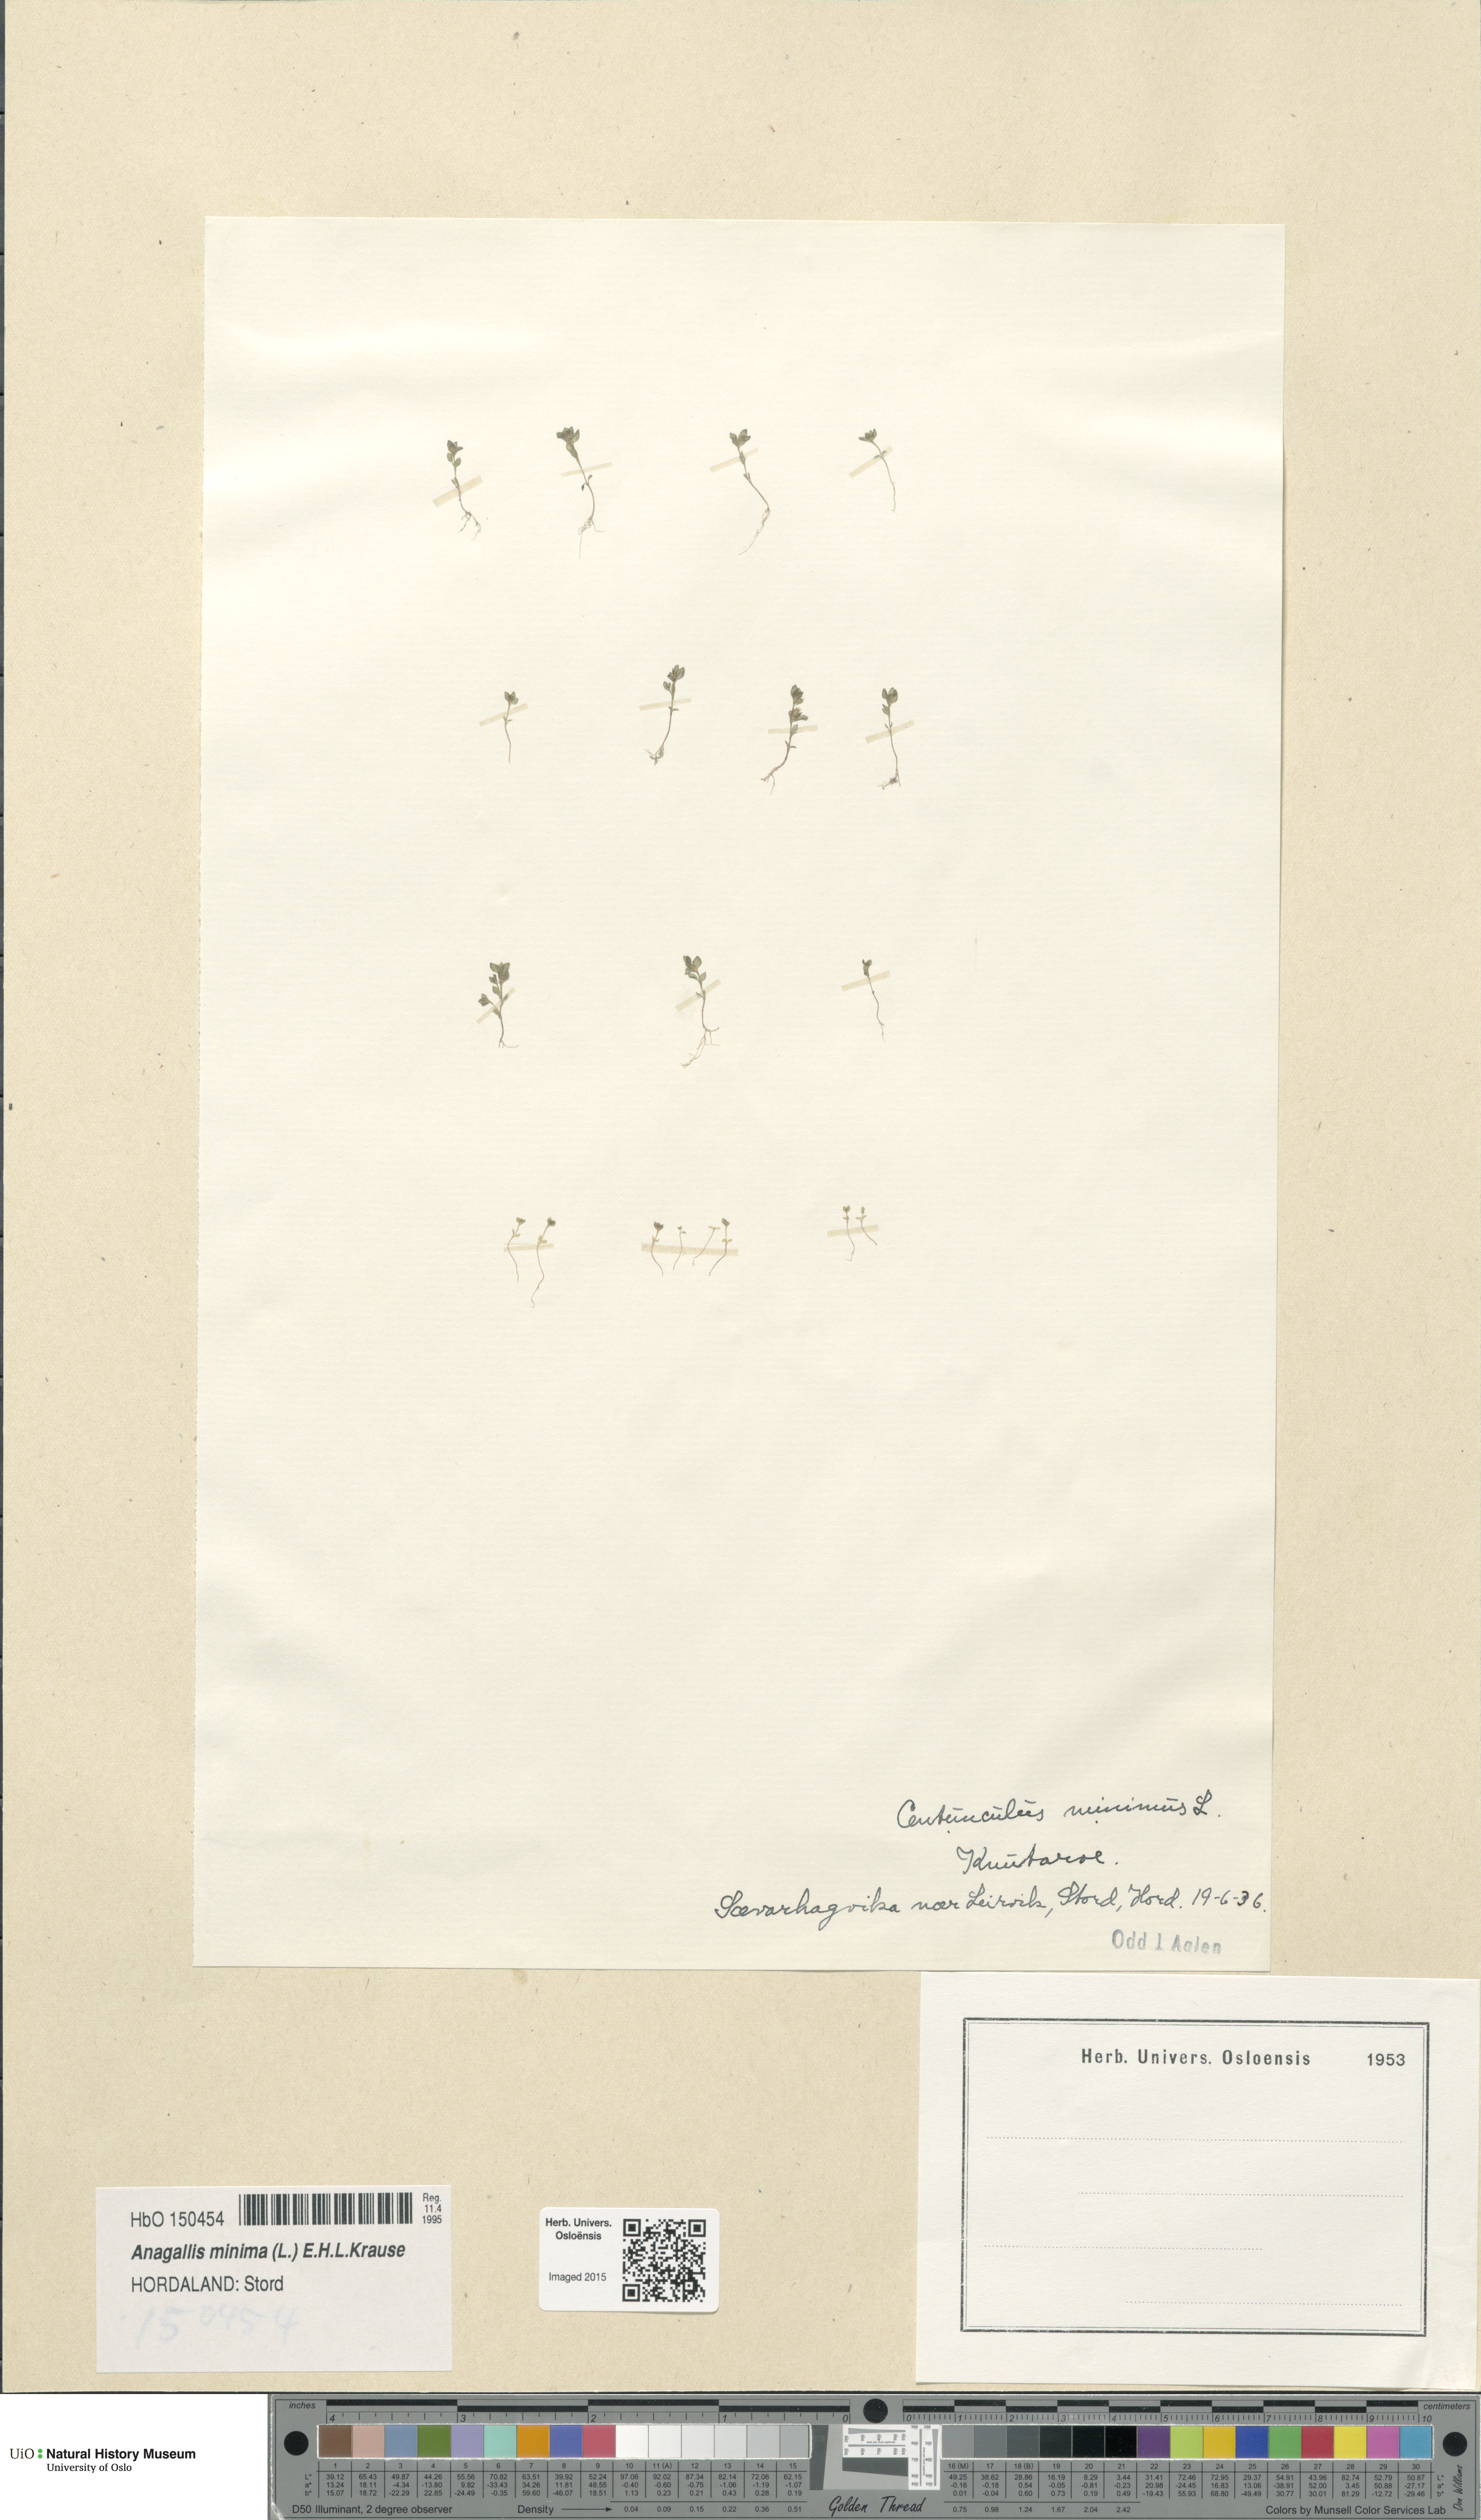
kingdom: Plantae
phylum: Tracheophyta
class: Magnoliopsida
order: Ericales
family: Primulaceae
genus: Lysimachia
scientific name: Lysimachia minima
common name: Chaffweed
